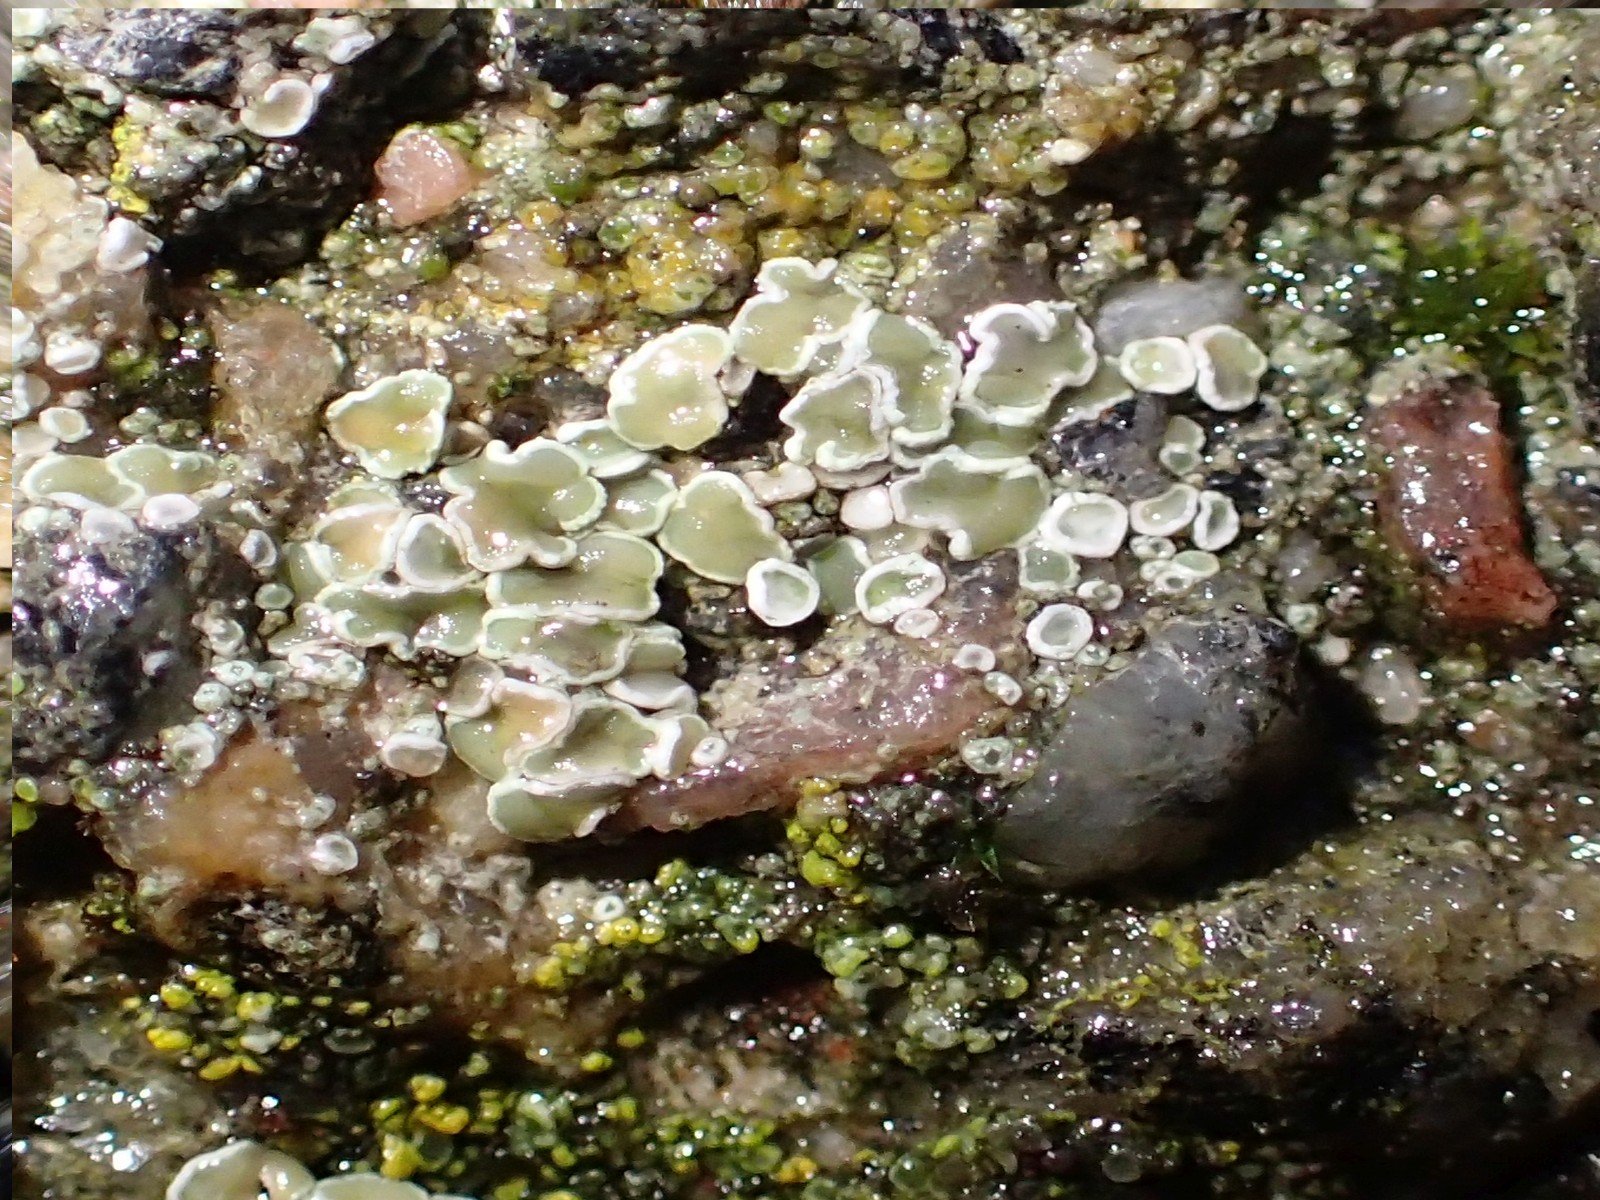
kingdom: Fungi
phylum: Ascomycota
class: Lecanoromycetes
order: Lecanorales
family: Lecanoraceae
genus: Polyozosia
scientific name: Polyozosia dispersa
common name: spredt kantskivelav
